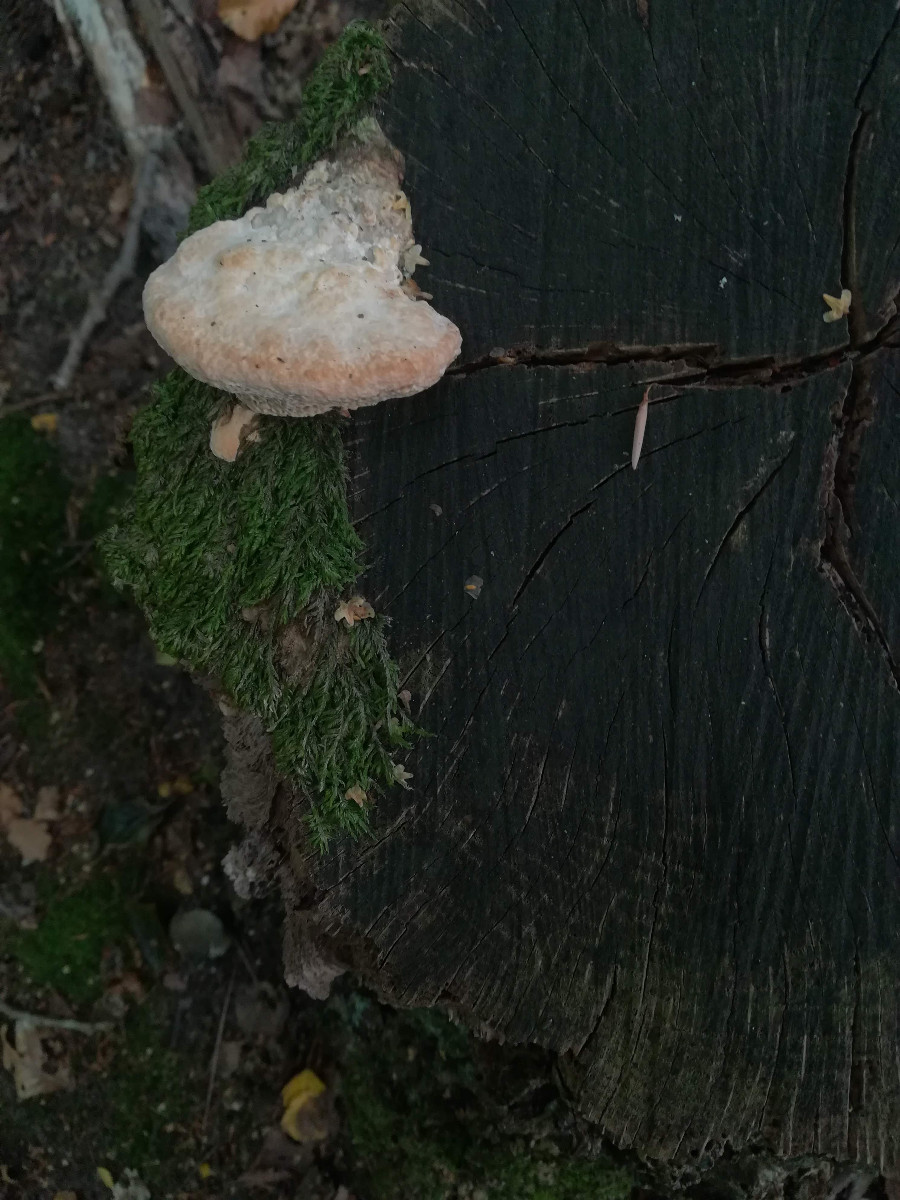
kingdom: Fungi
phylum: Basidiomycota
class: Agaricomycetes
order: Polyporales
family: Fomitopsidaceae
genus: Daedalea
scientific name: Daedalea quercina
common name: ege-labyrintsvamp
